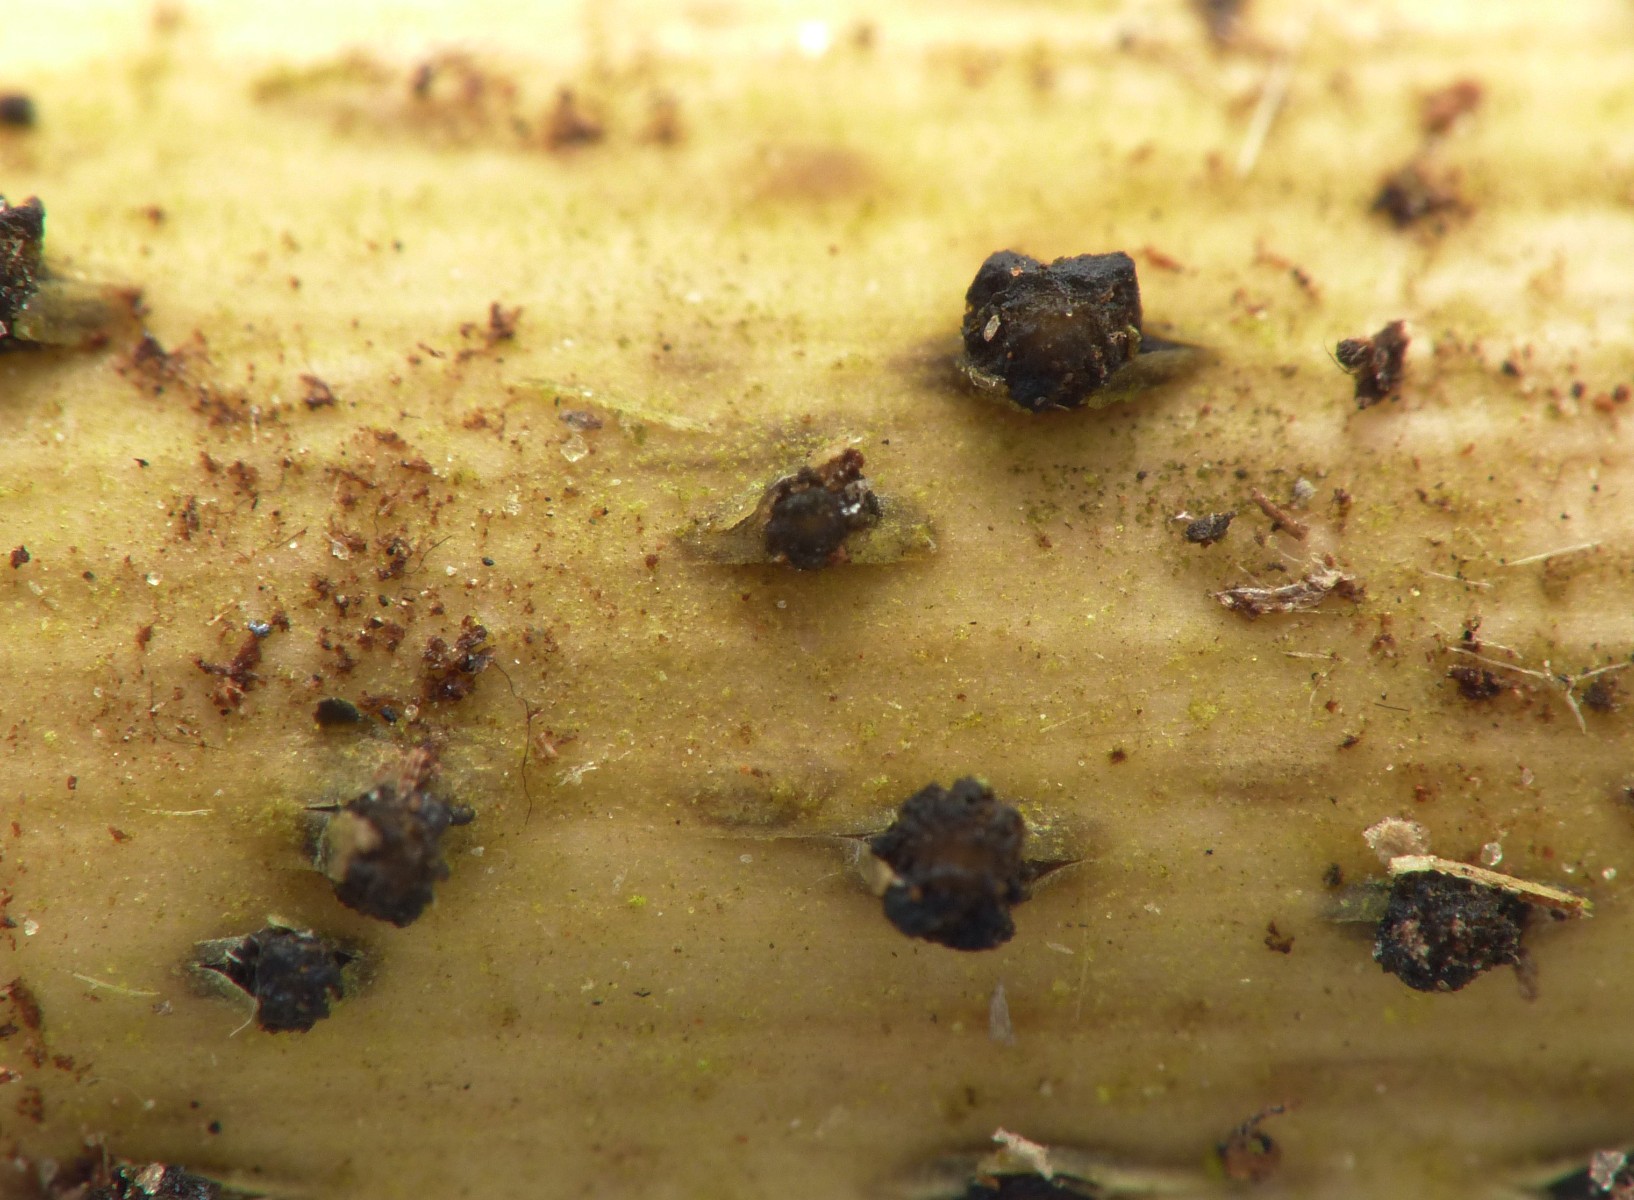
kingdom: Fungi
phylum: Ascomycota
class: Leotiomycetes
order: Helotiales
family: Godroniaceae
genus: Godronia
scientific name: Godronia muehlenbeckii
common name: tagrør-urneskive
